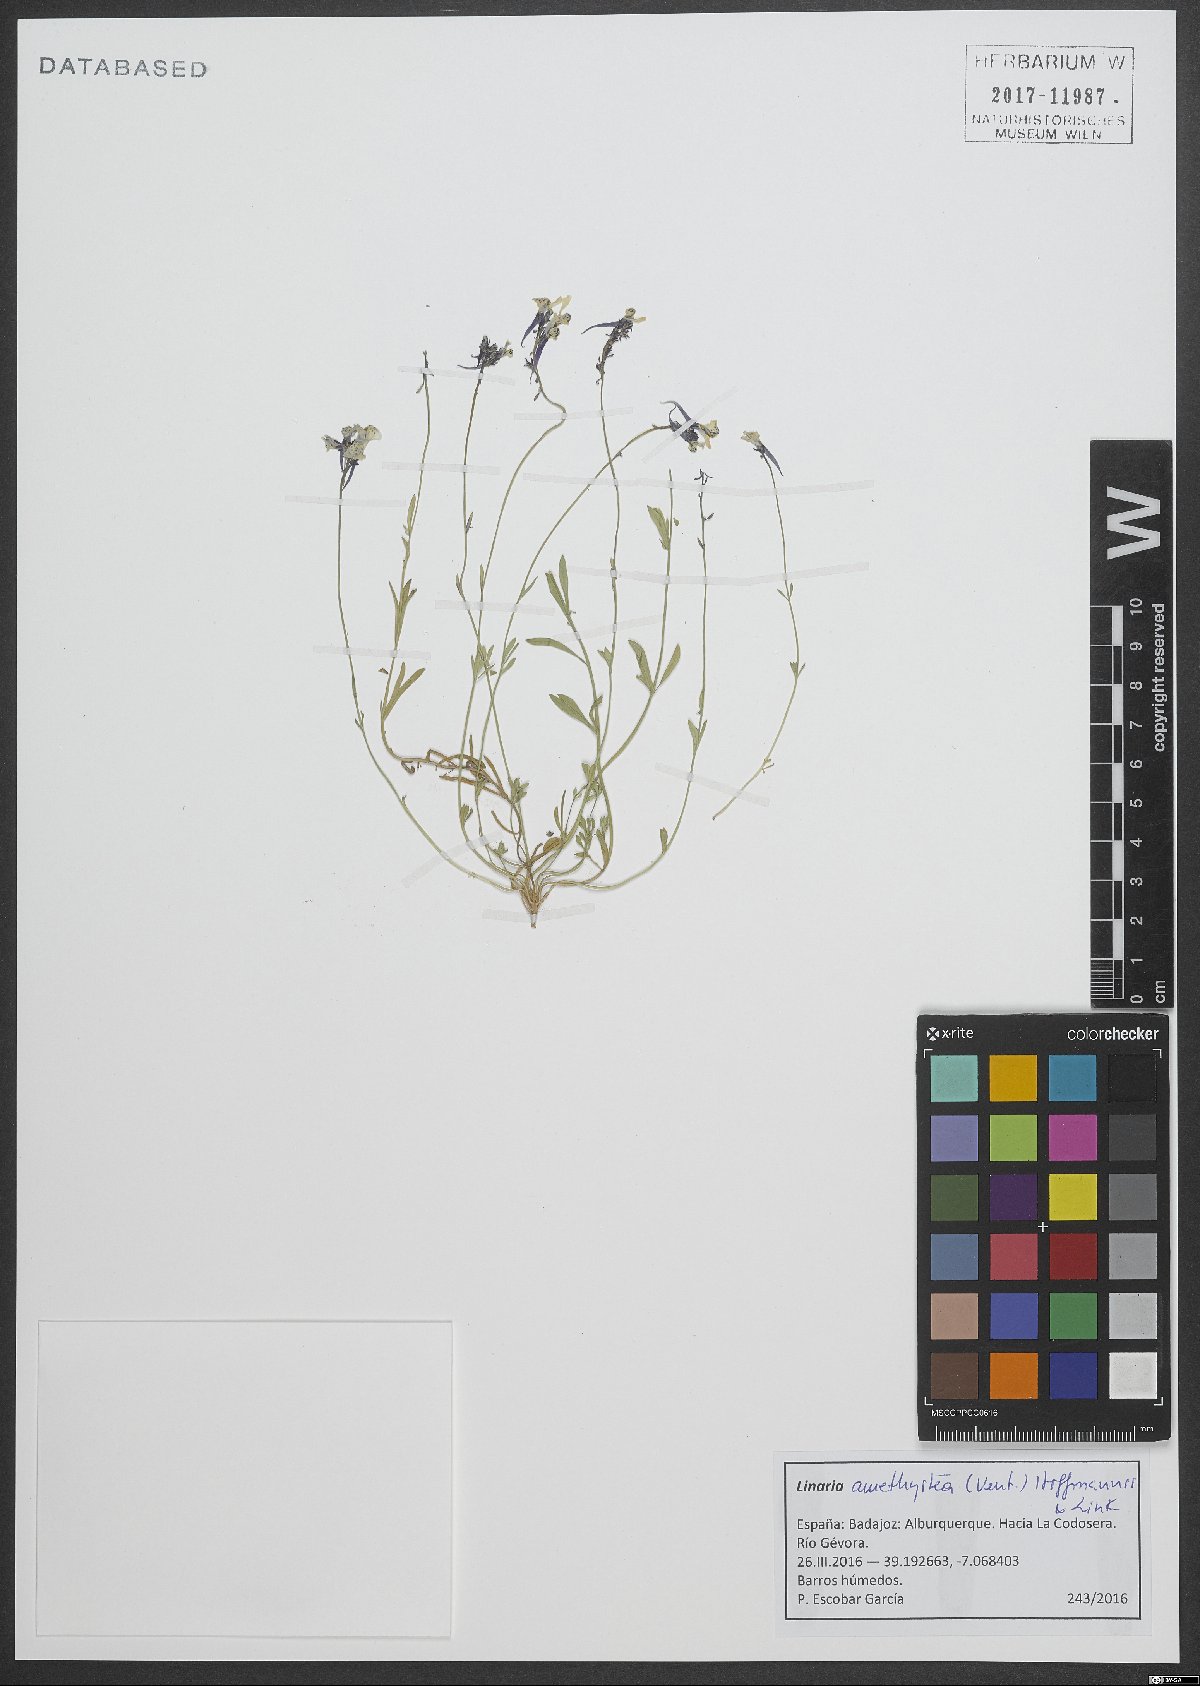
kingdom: Plantae
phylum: Tracheophyta
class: Magnoliopsida
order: Lamiales
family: Plantaginaceae
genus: Linaria
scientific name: Linaria amethystea
